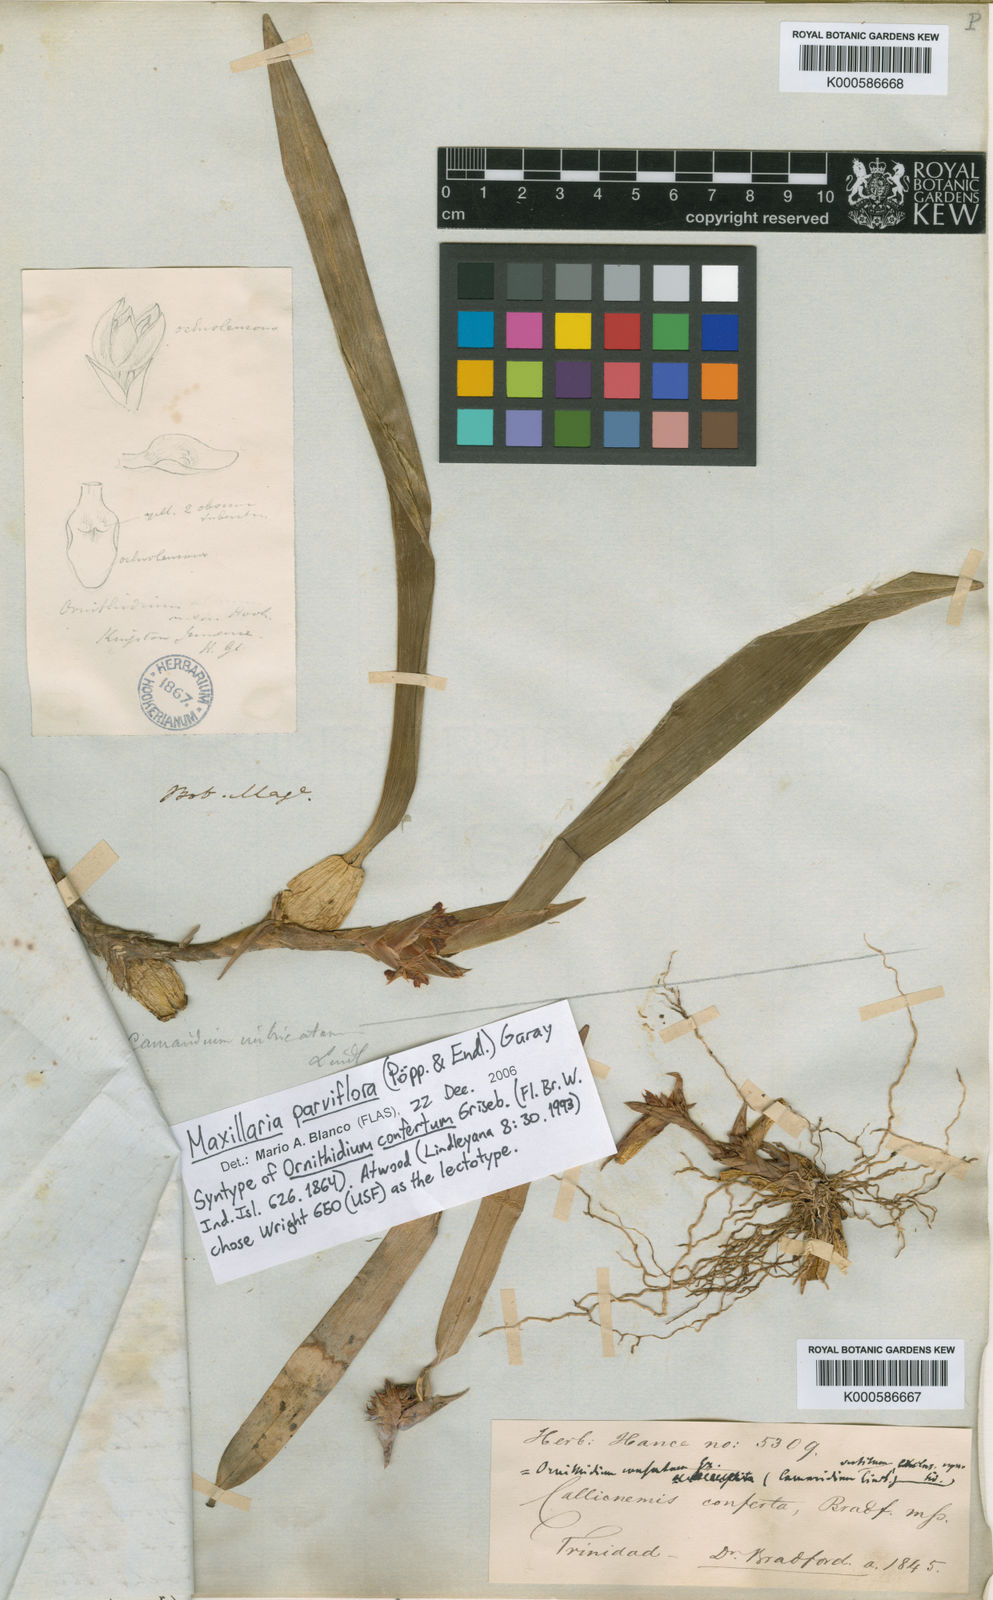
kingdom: Plantae
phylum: Tracheophyta
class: Liliopsida
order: Asparagales
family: Orchidaceae
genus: Maxillaria
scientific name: Maxillaria parviflora
